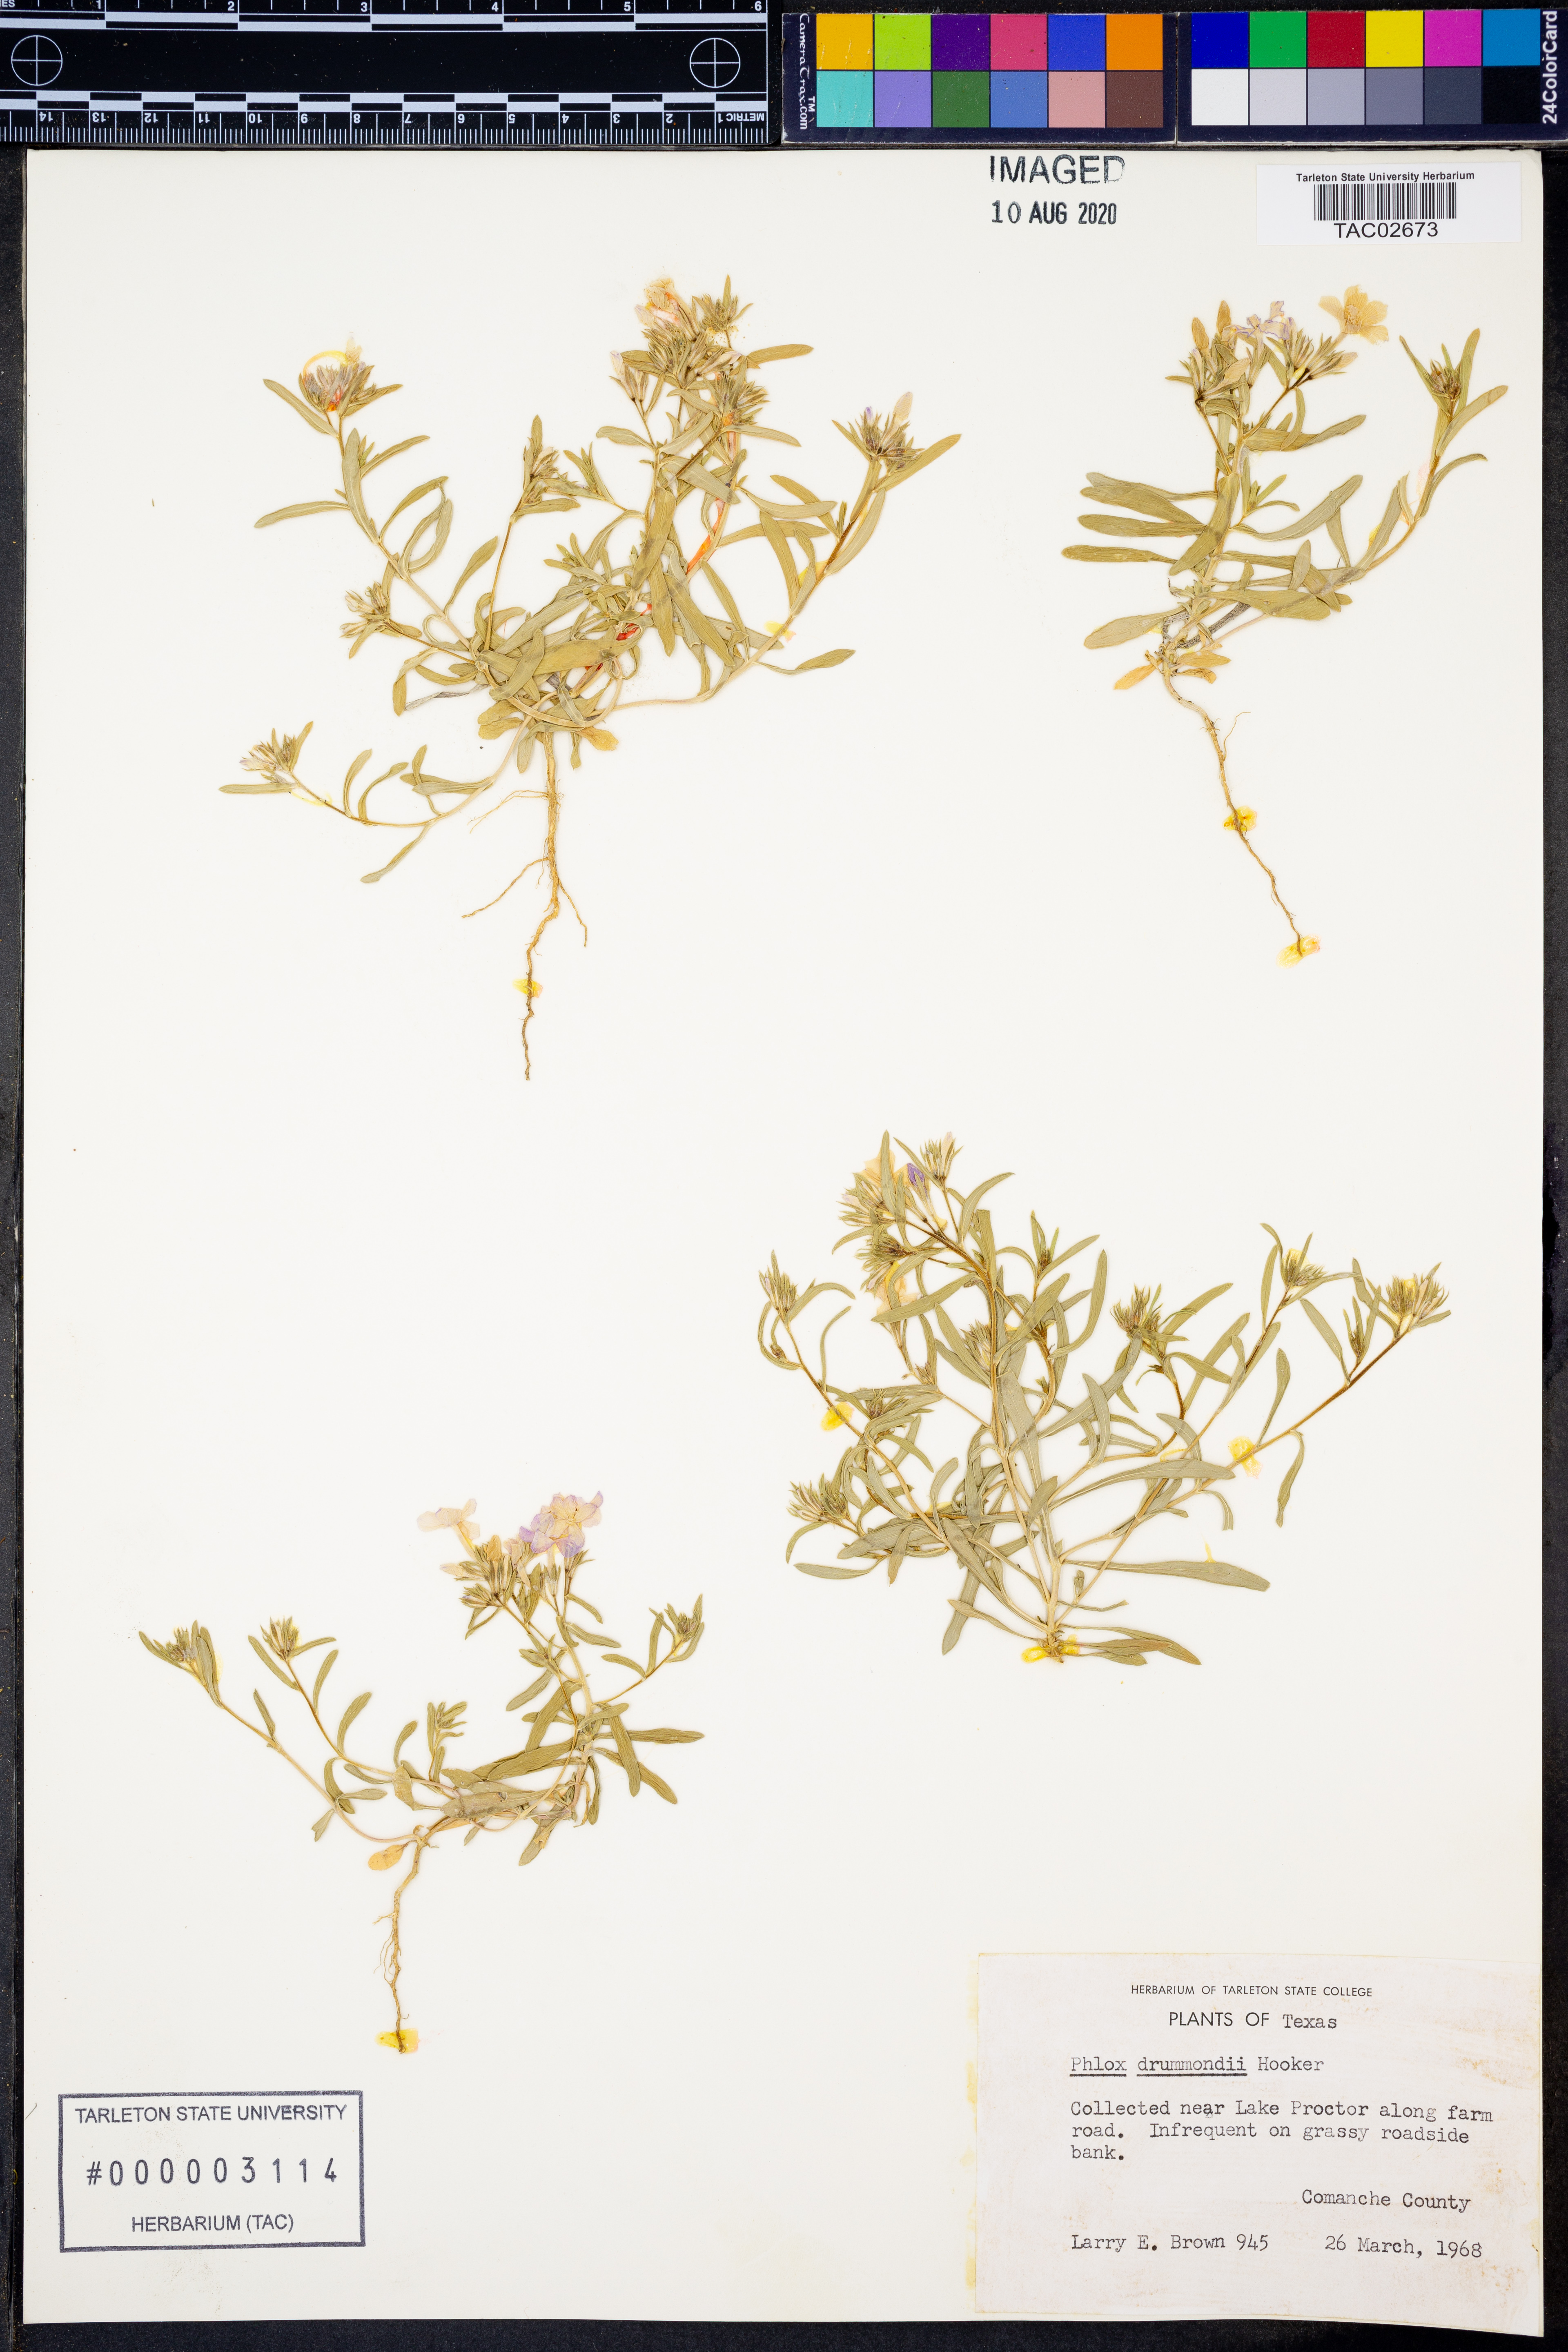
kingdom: Plantae
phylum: Tracheophyta
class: Magnoliopsida
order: Ericales
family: Polemoniaceae
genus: Phlox
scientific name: Phlox drummondii
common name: Drummond's phlox
